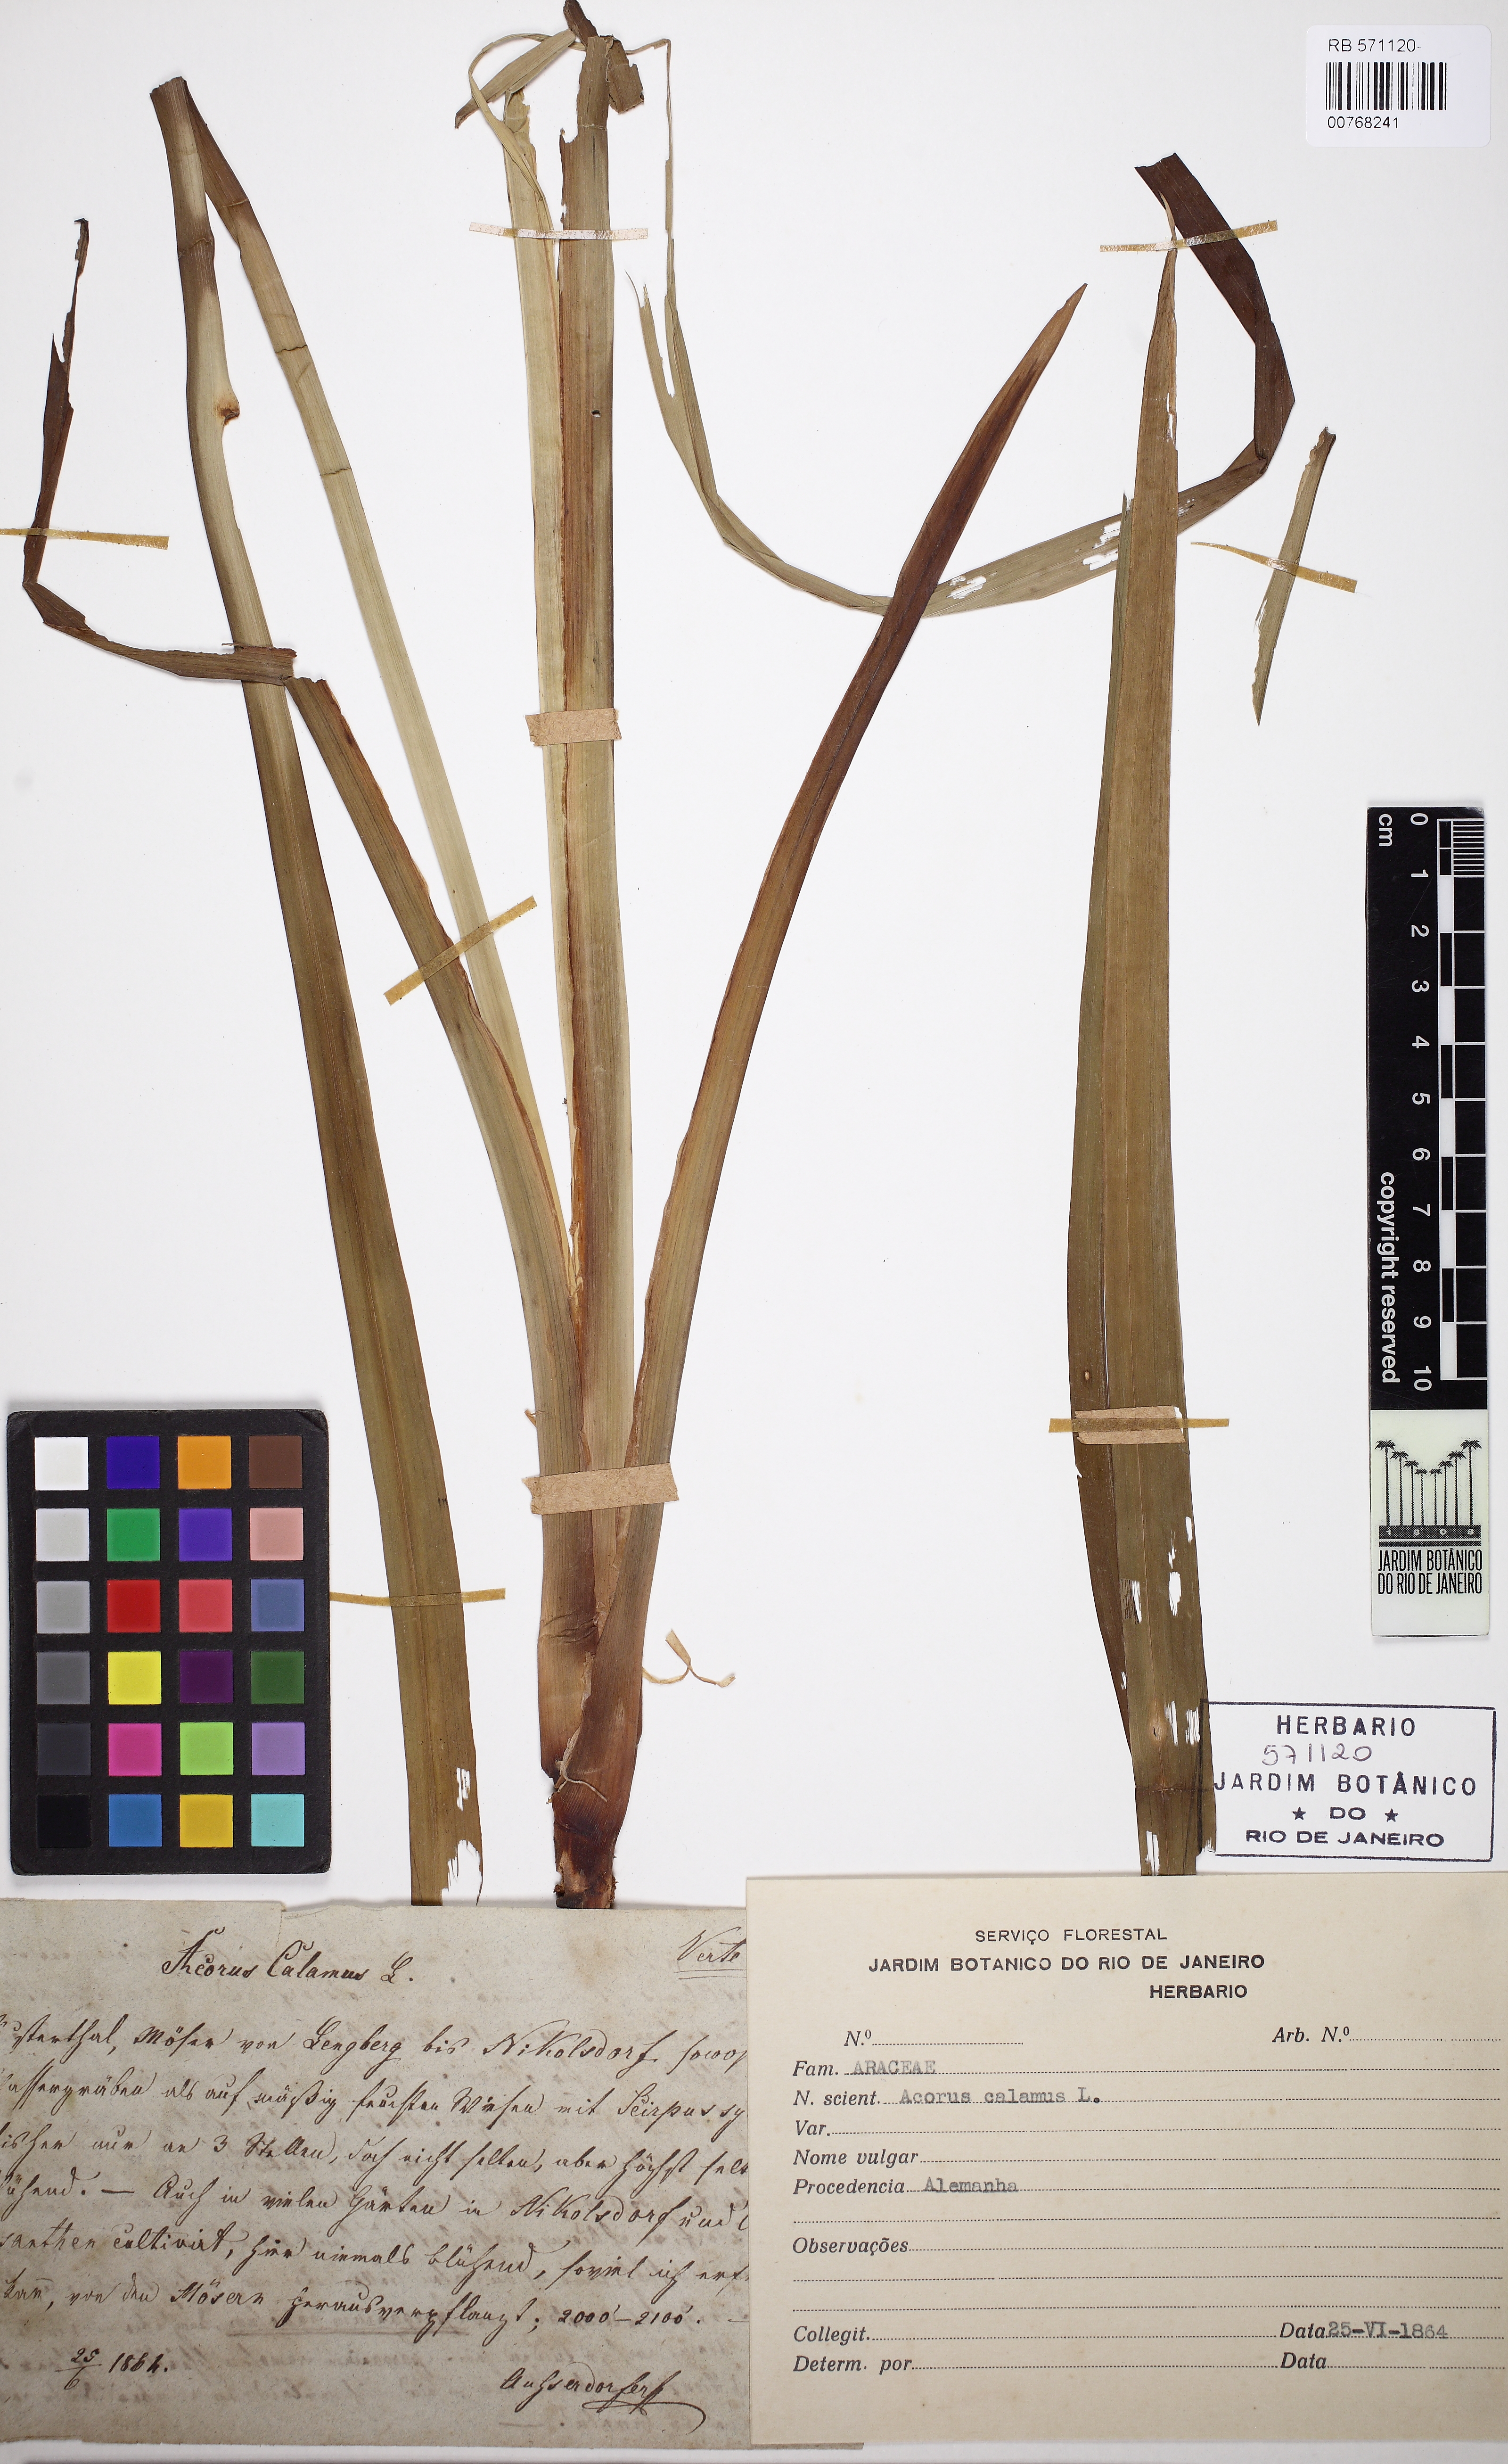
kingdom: Plantae
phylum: Tracheophyta
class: Liliopsida
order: Acorales
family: Acoraceae
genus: Acorus
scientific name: Acorus calamus
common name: Sweet-flag
